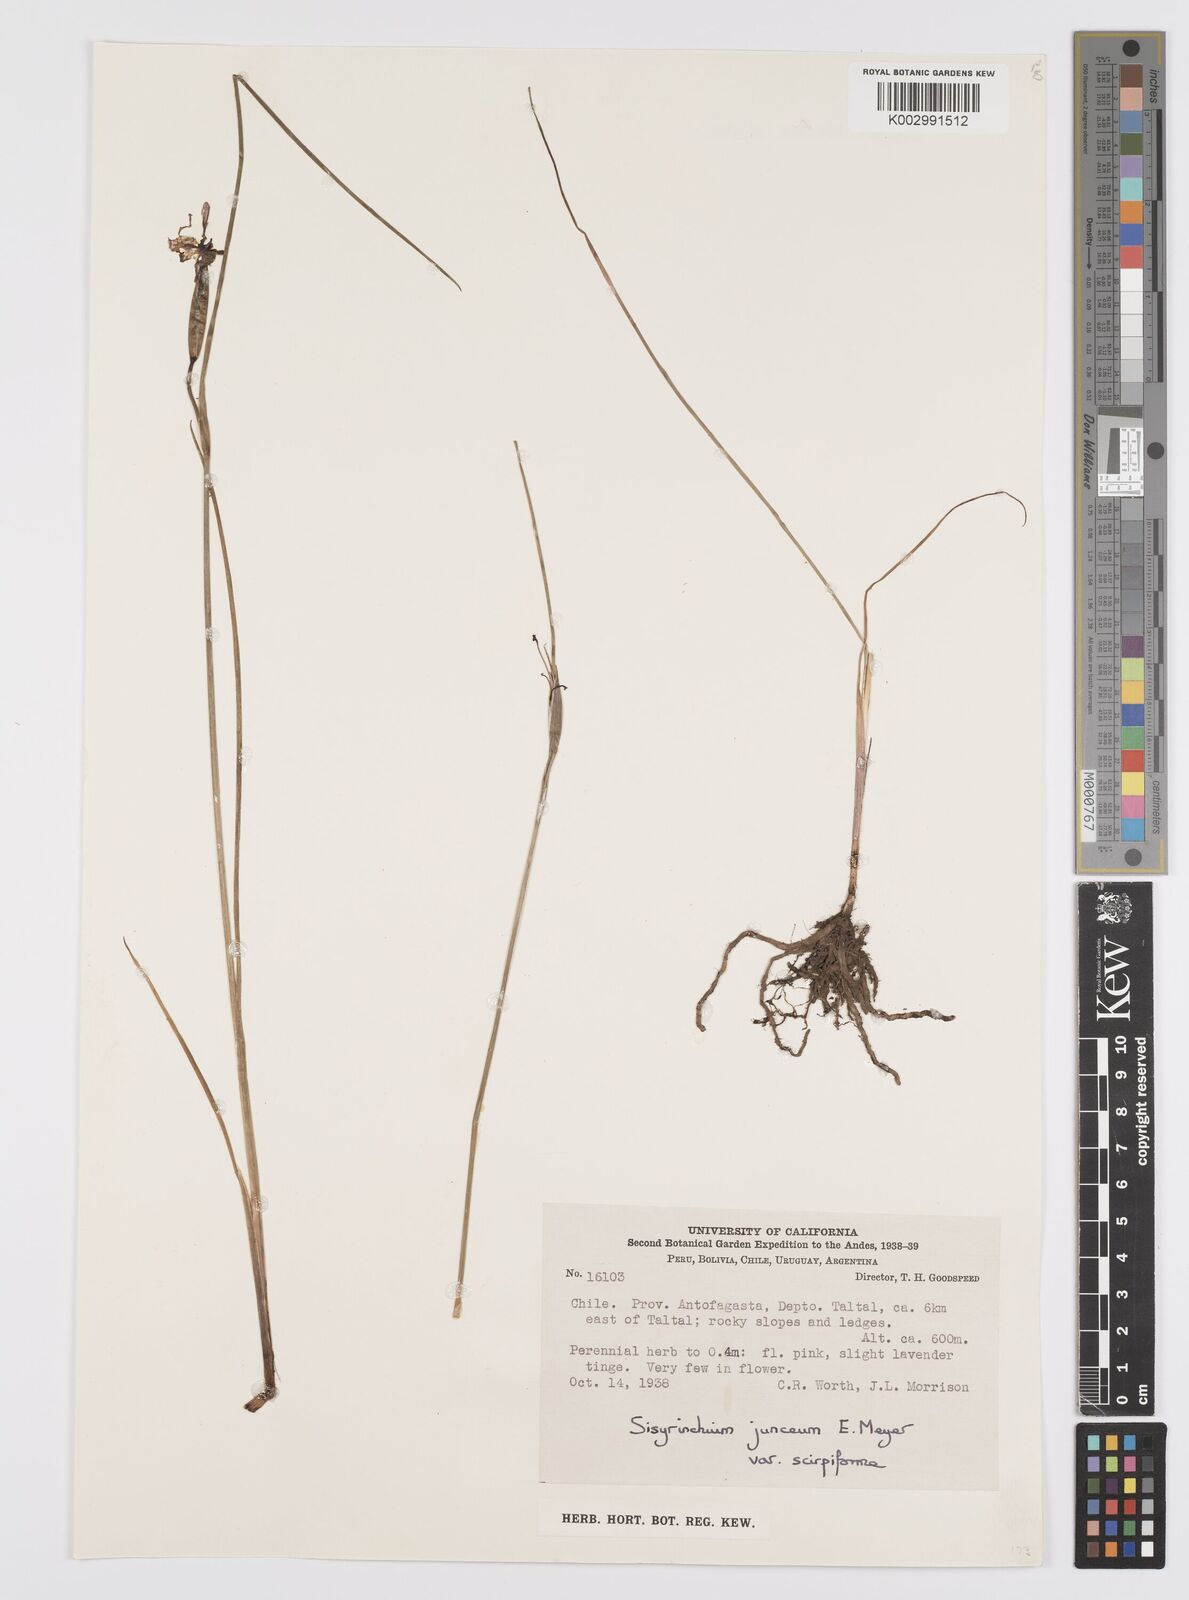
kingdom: Plantae
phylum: Tracheophyta
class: Liliopsida
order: Asparagales
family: Iridaceae
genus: Olsynium
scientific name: Olsynium junceum
